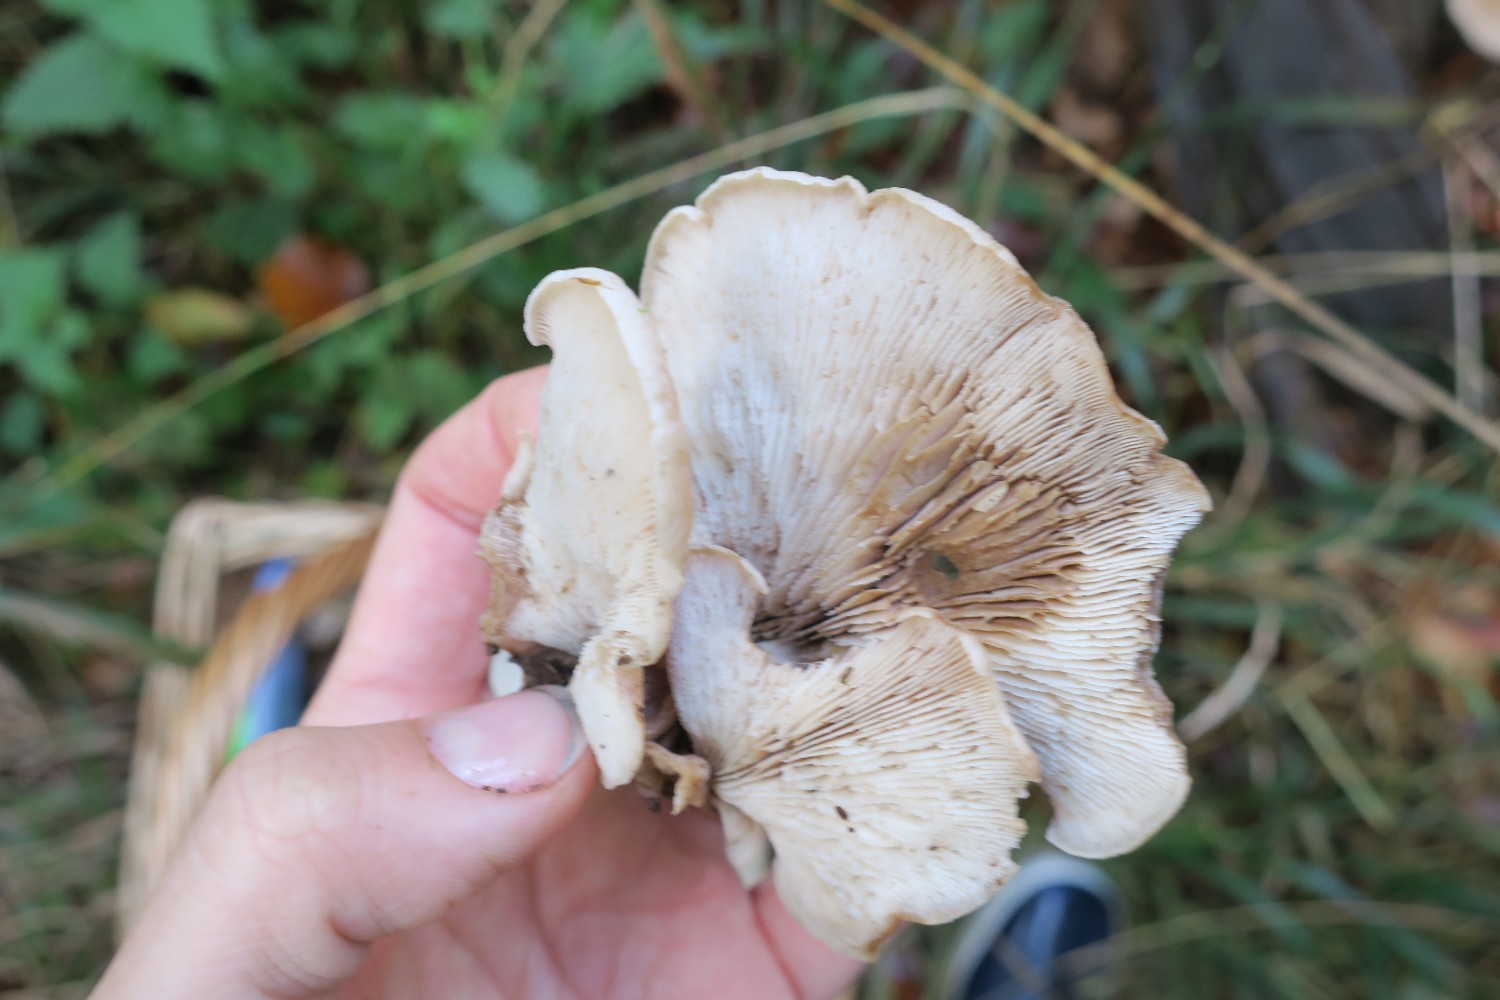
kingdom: Fungi
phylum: Basidiomycota
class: Agaricomycetes
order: Russulales
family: Auriscalpiaceae
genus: Lentinellus
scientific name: Lentinellus ursinus
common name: børstehåret savbladhat
